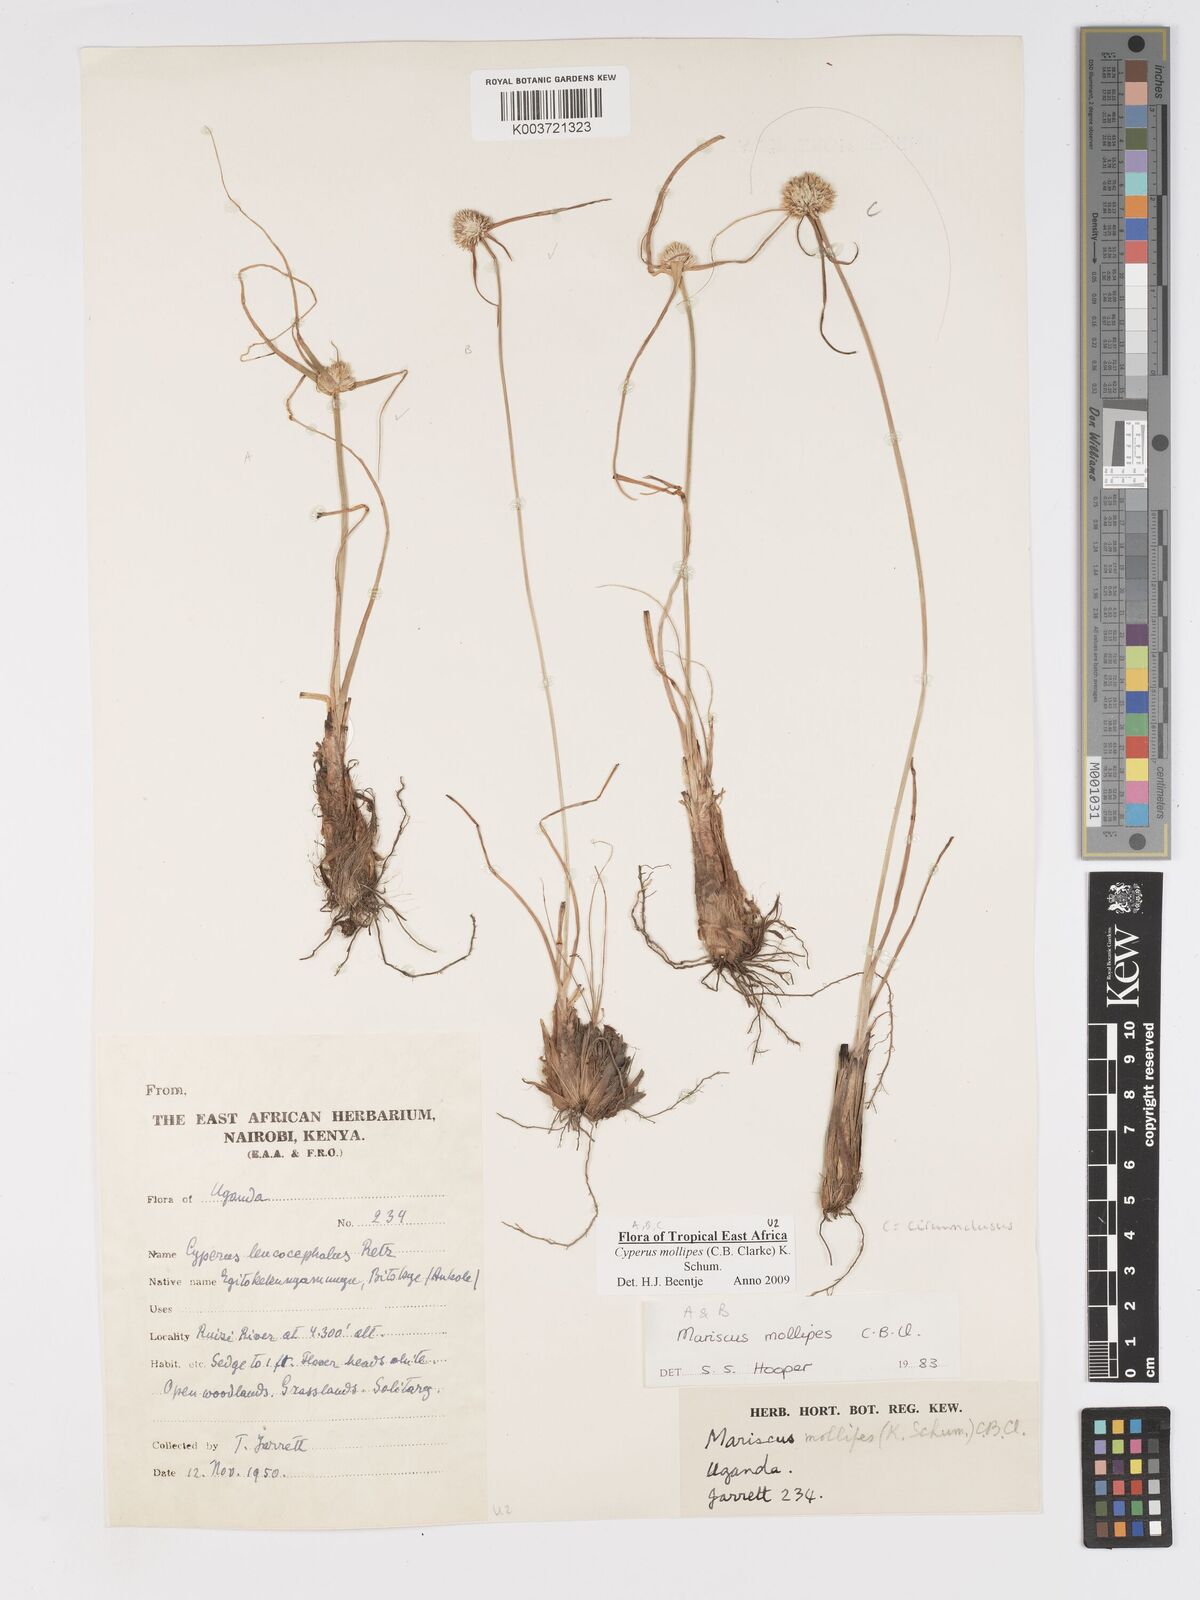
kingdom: Plantae
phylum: Tracheophyta
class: Liliopsida
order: Poales
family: Cyperaceae
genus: Cyperus
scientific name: Cyperus mollipes
